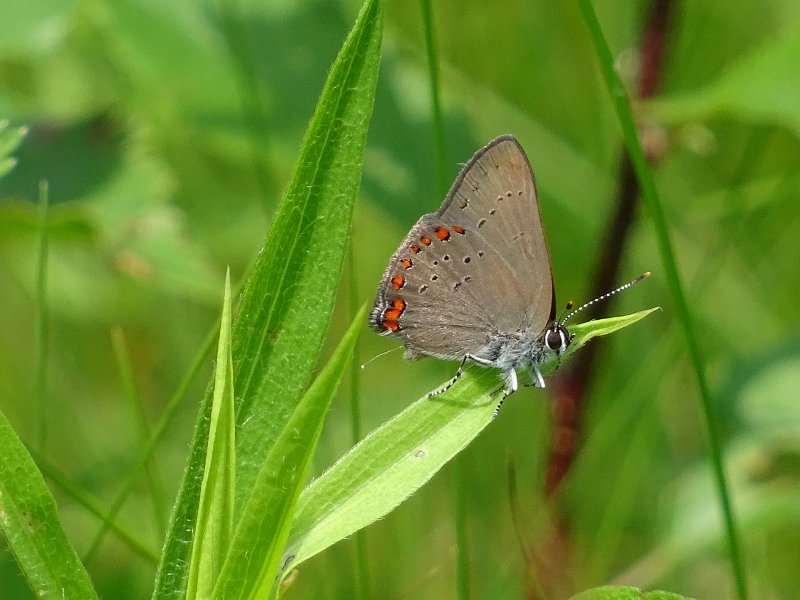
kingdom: Animalia
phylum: Arthropoda
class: Insecta
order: Lepidoptera
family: Lycaenidae
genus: Harkenclenus
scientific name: Harkenclenus titus
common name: Coral Hairstreak
